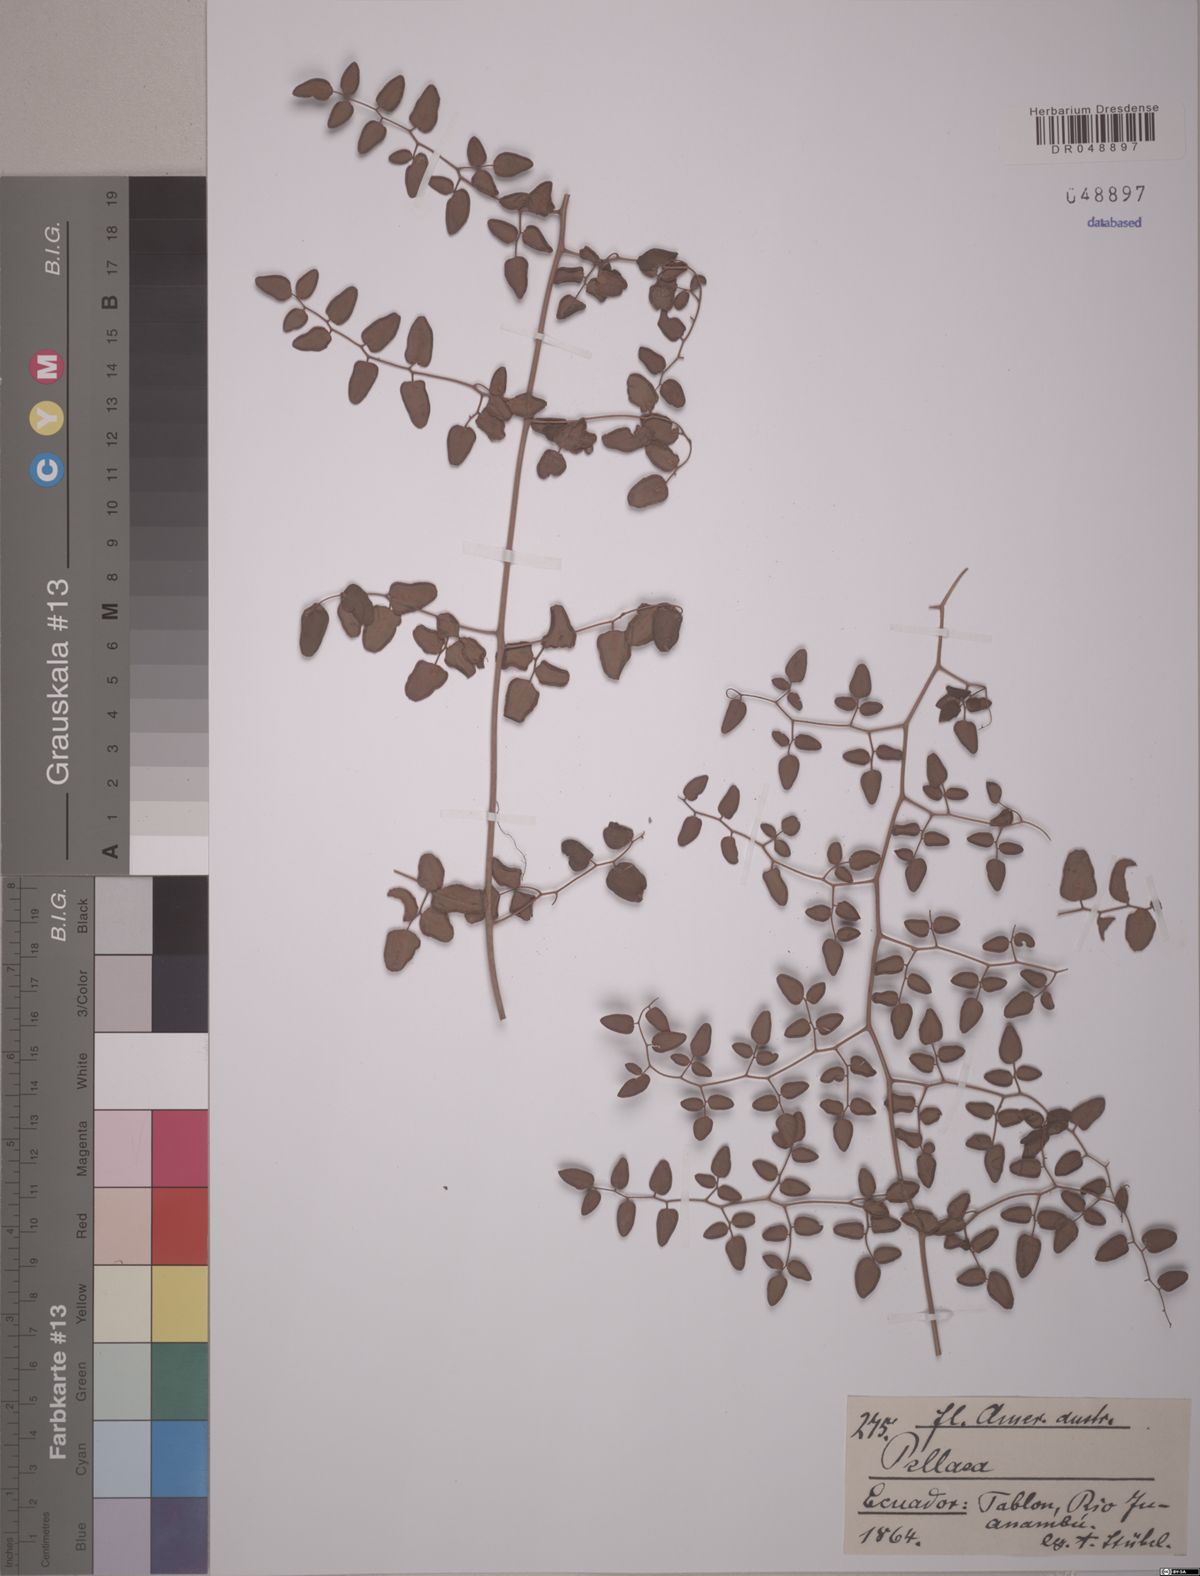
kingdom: Plantae
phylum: Tracheophyta
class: Polypodiopsida
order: Polypodiales
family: Pteridaceae
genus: Pellaea
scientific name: Pellaea
